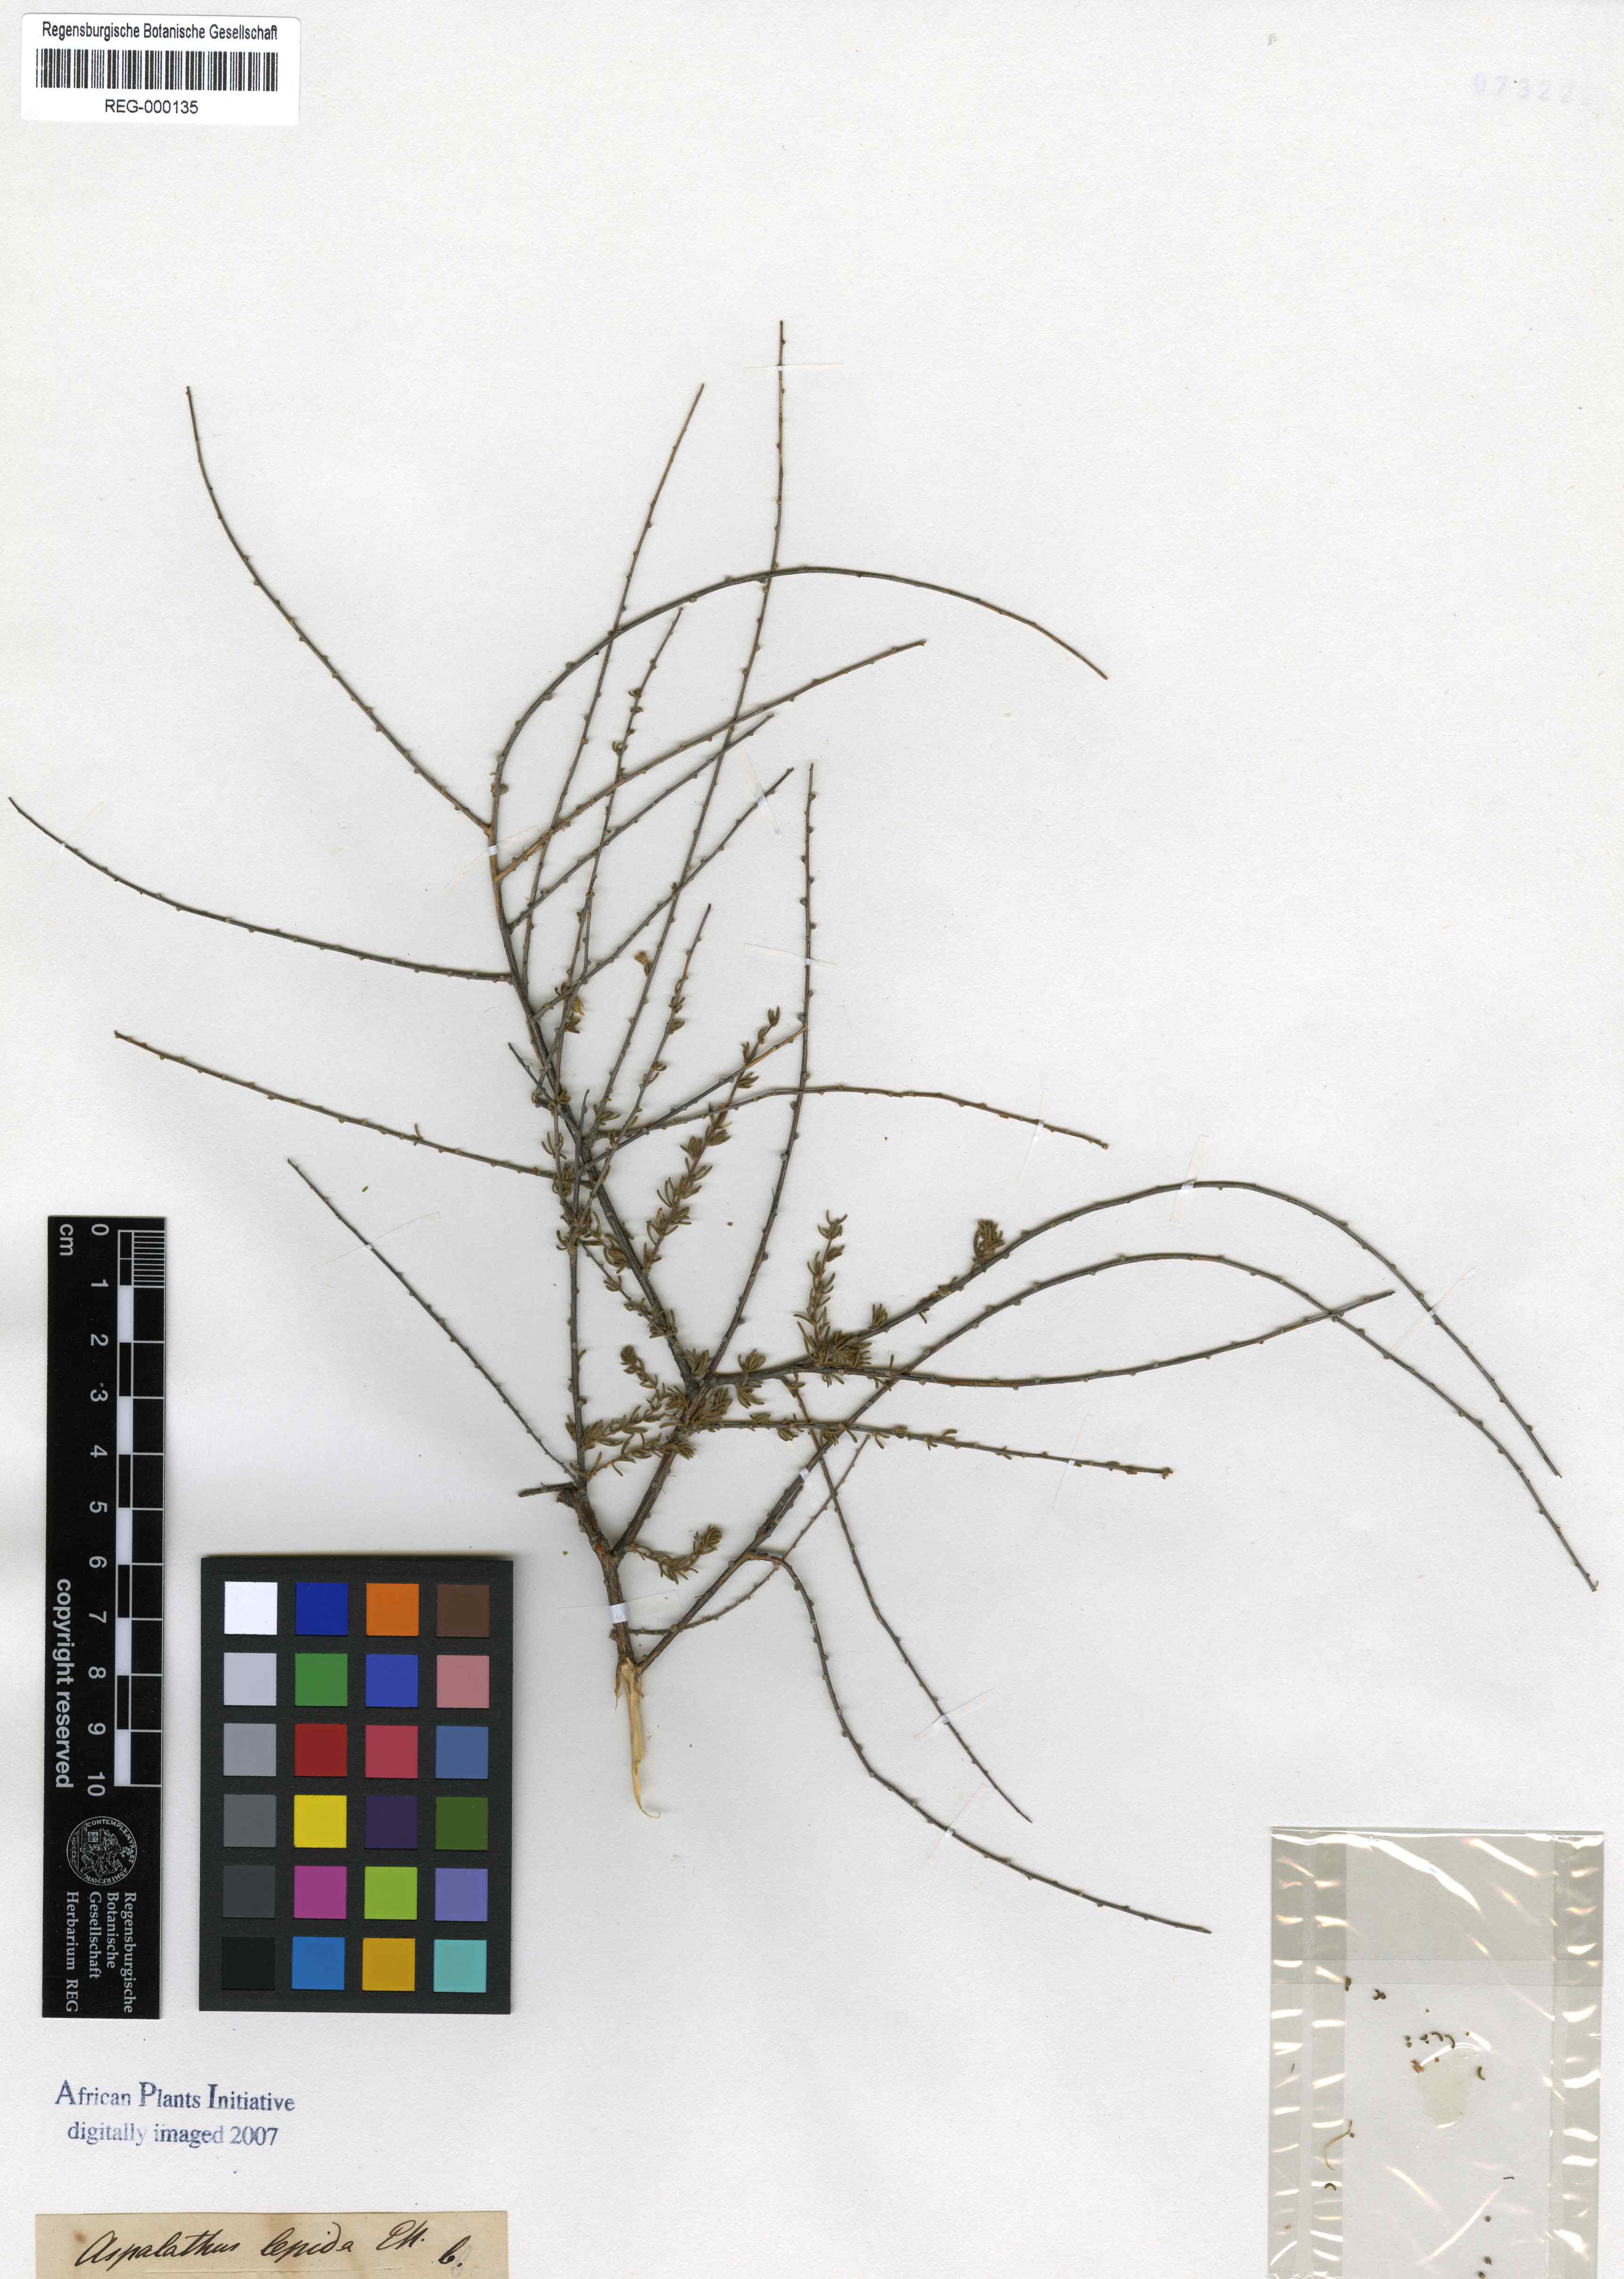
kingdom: Plantae
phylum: Tracheophyta
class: Magnoliopsida
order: Fabales
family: Fabaceae
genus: Aspalathus
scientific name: Aspalathus spinescens
